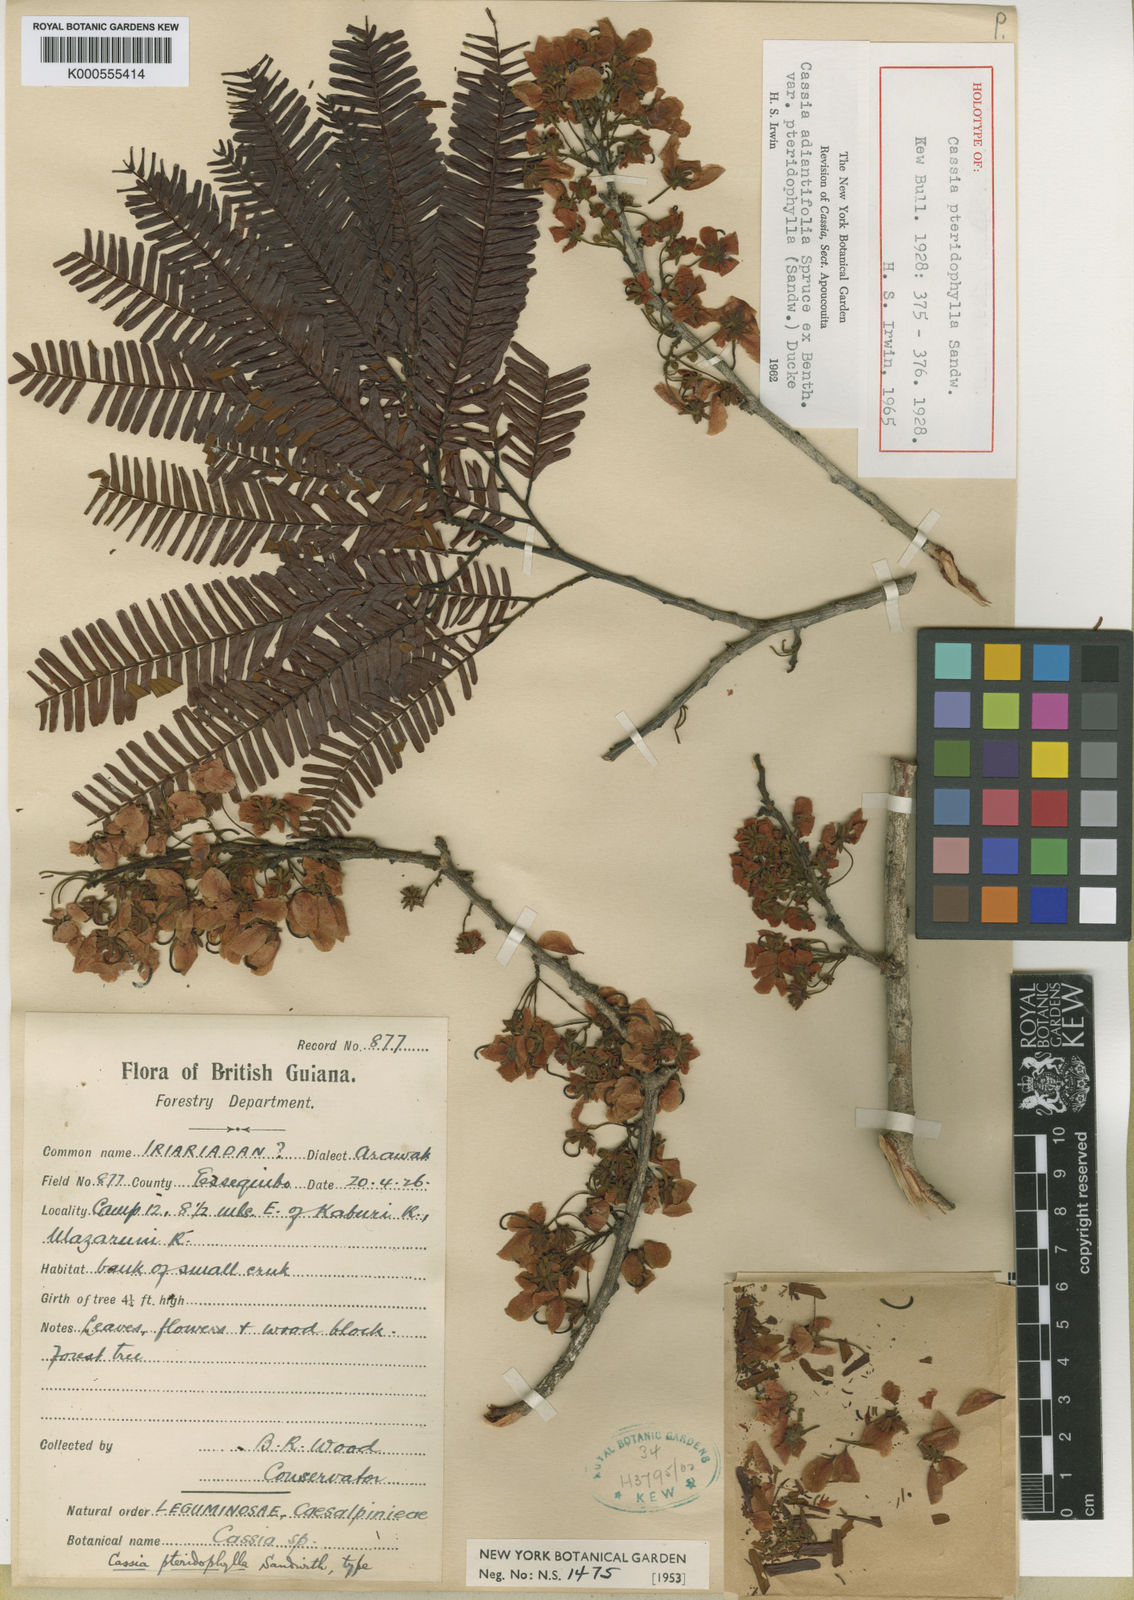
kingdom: Plantae
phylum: Tracheophyta
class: Magnoliopsida
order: Fabales
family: Fabaceae
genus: Chamaecrista
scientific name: Chamaecrista adiantifolia
